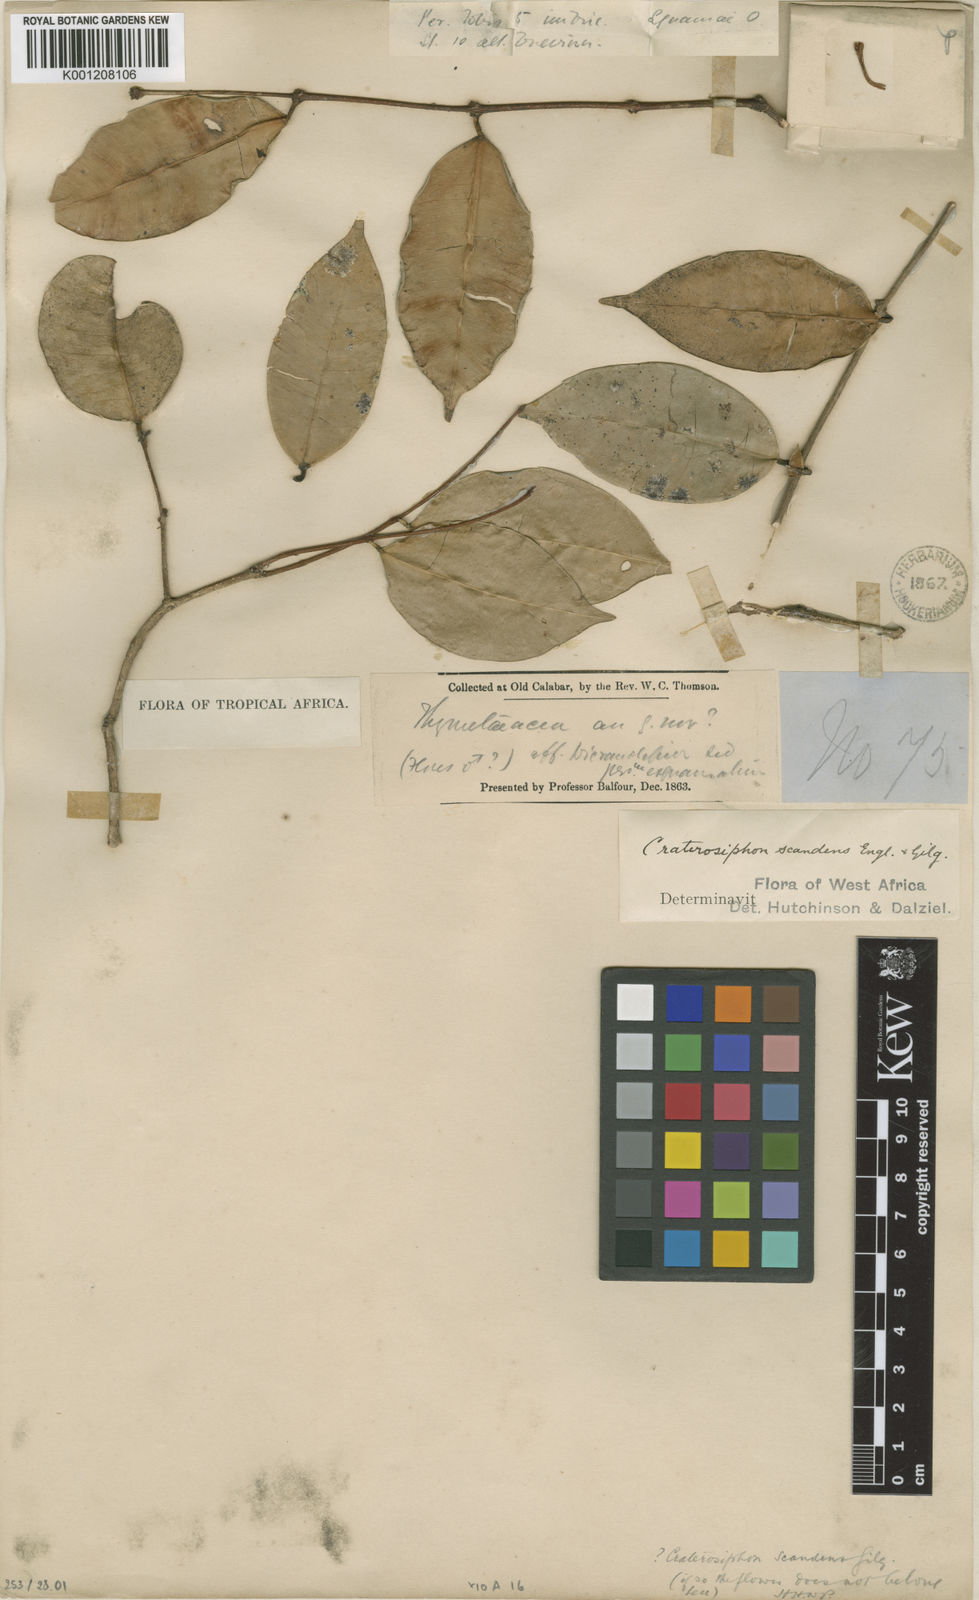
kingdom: Plantae
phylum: Tracheophyta
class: Magnoliopsida
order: Malvales
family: Thymelaeaceae
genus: Craterosiphon
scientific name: Craterosiphon scandens
